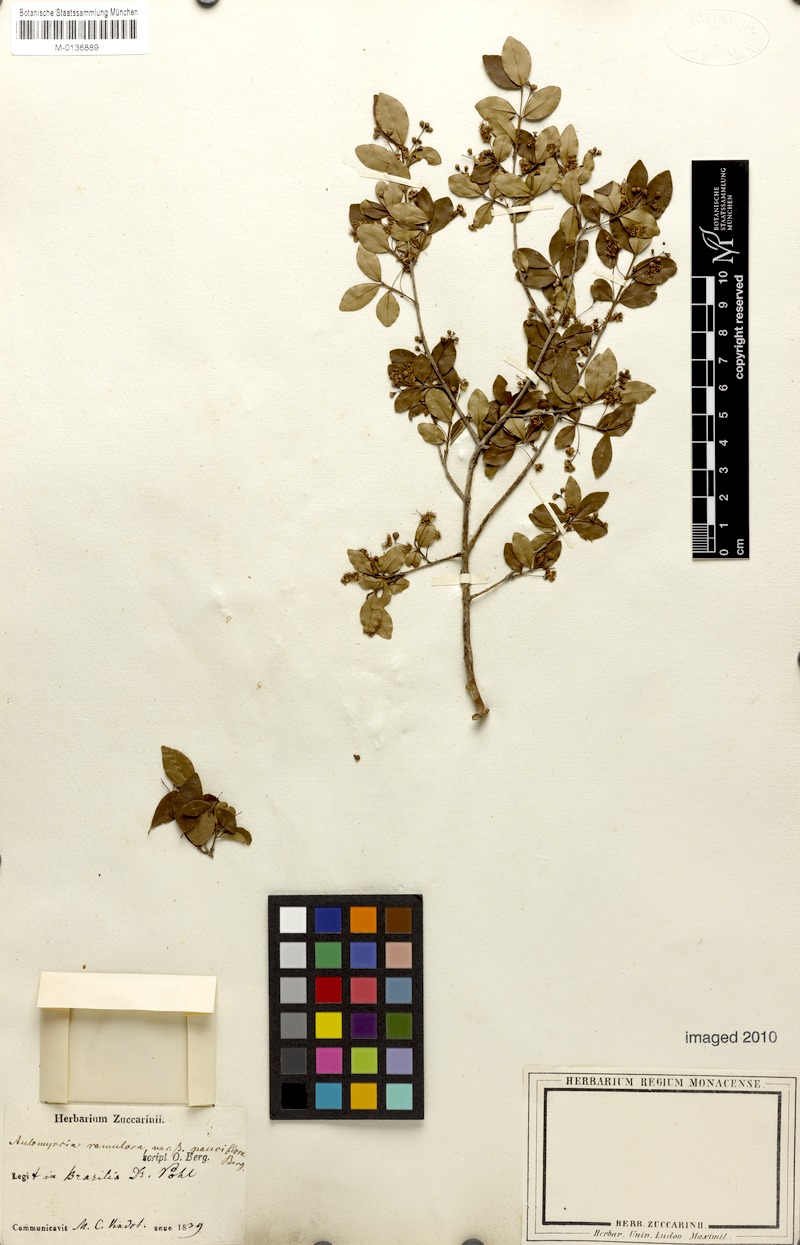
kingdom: Plantae
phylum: Tracheophyta
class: Magnoliopsida
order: Myrtales
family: Myrtaceae
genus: Myrcia
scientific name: Myrcia selloi
